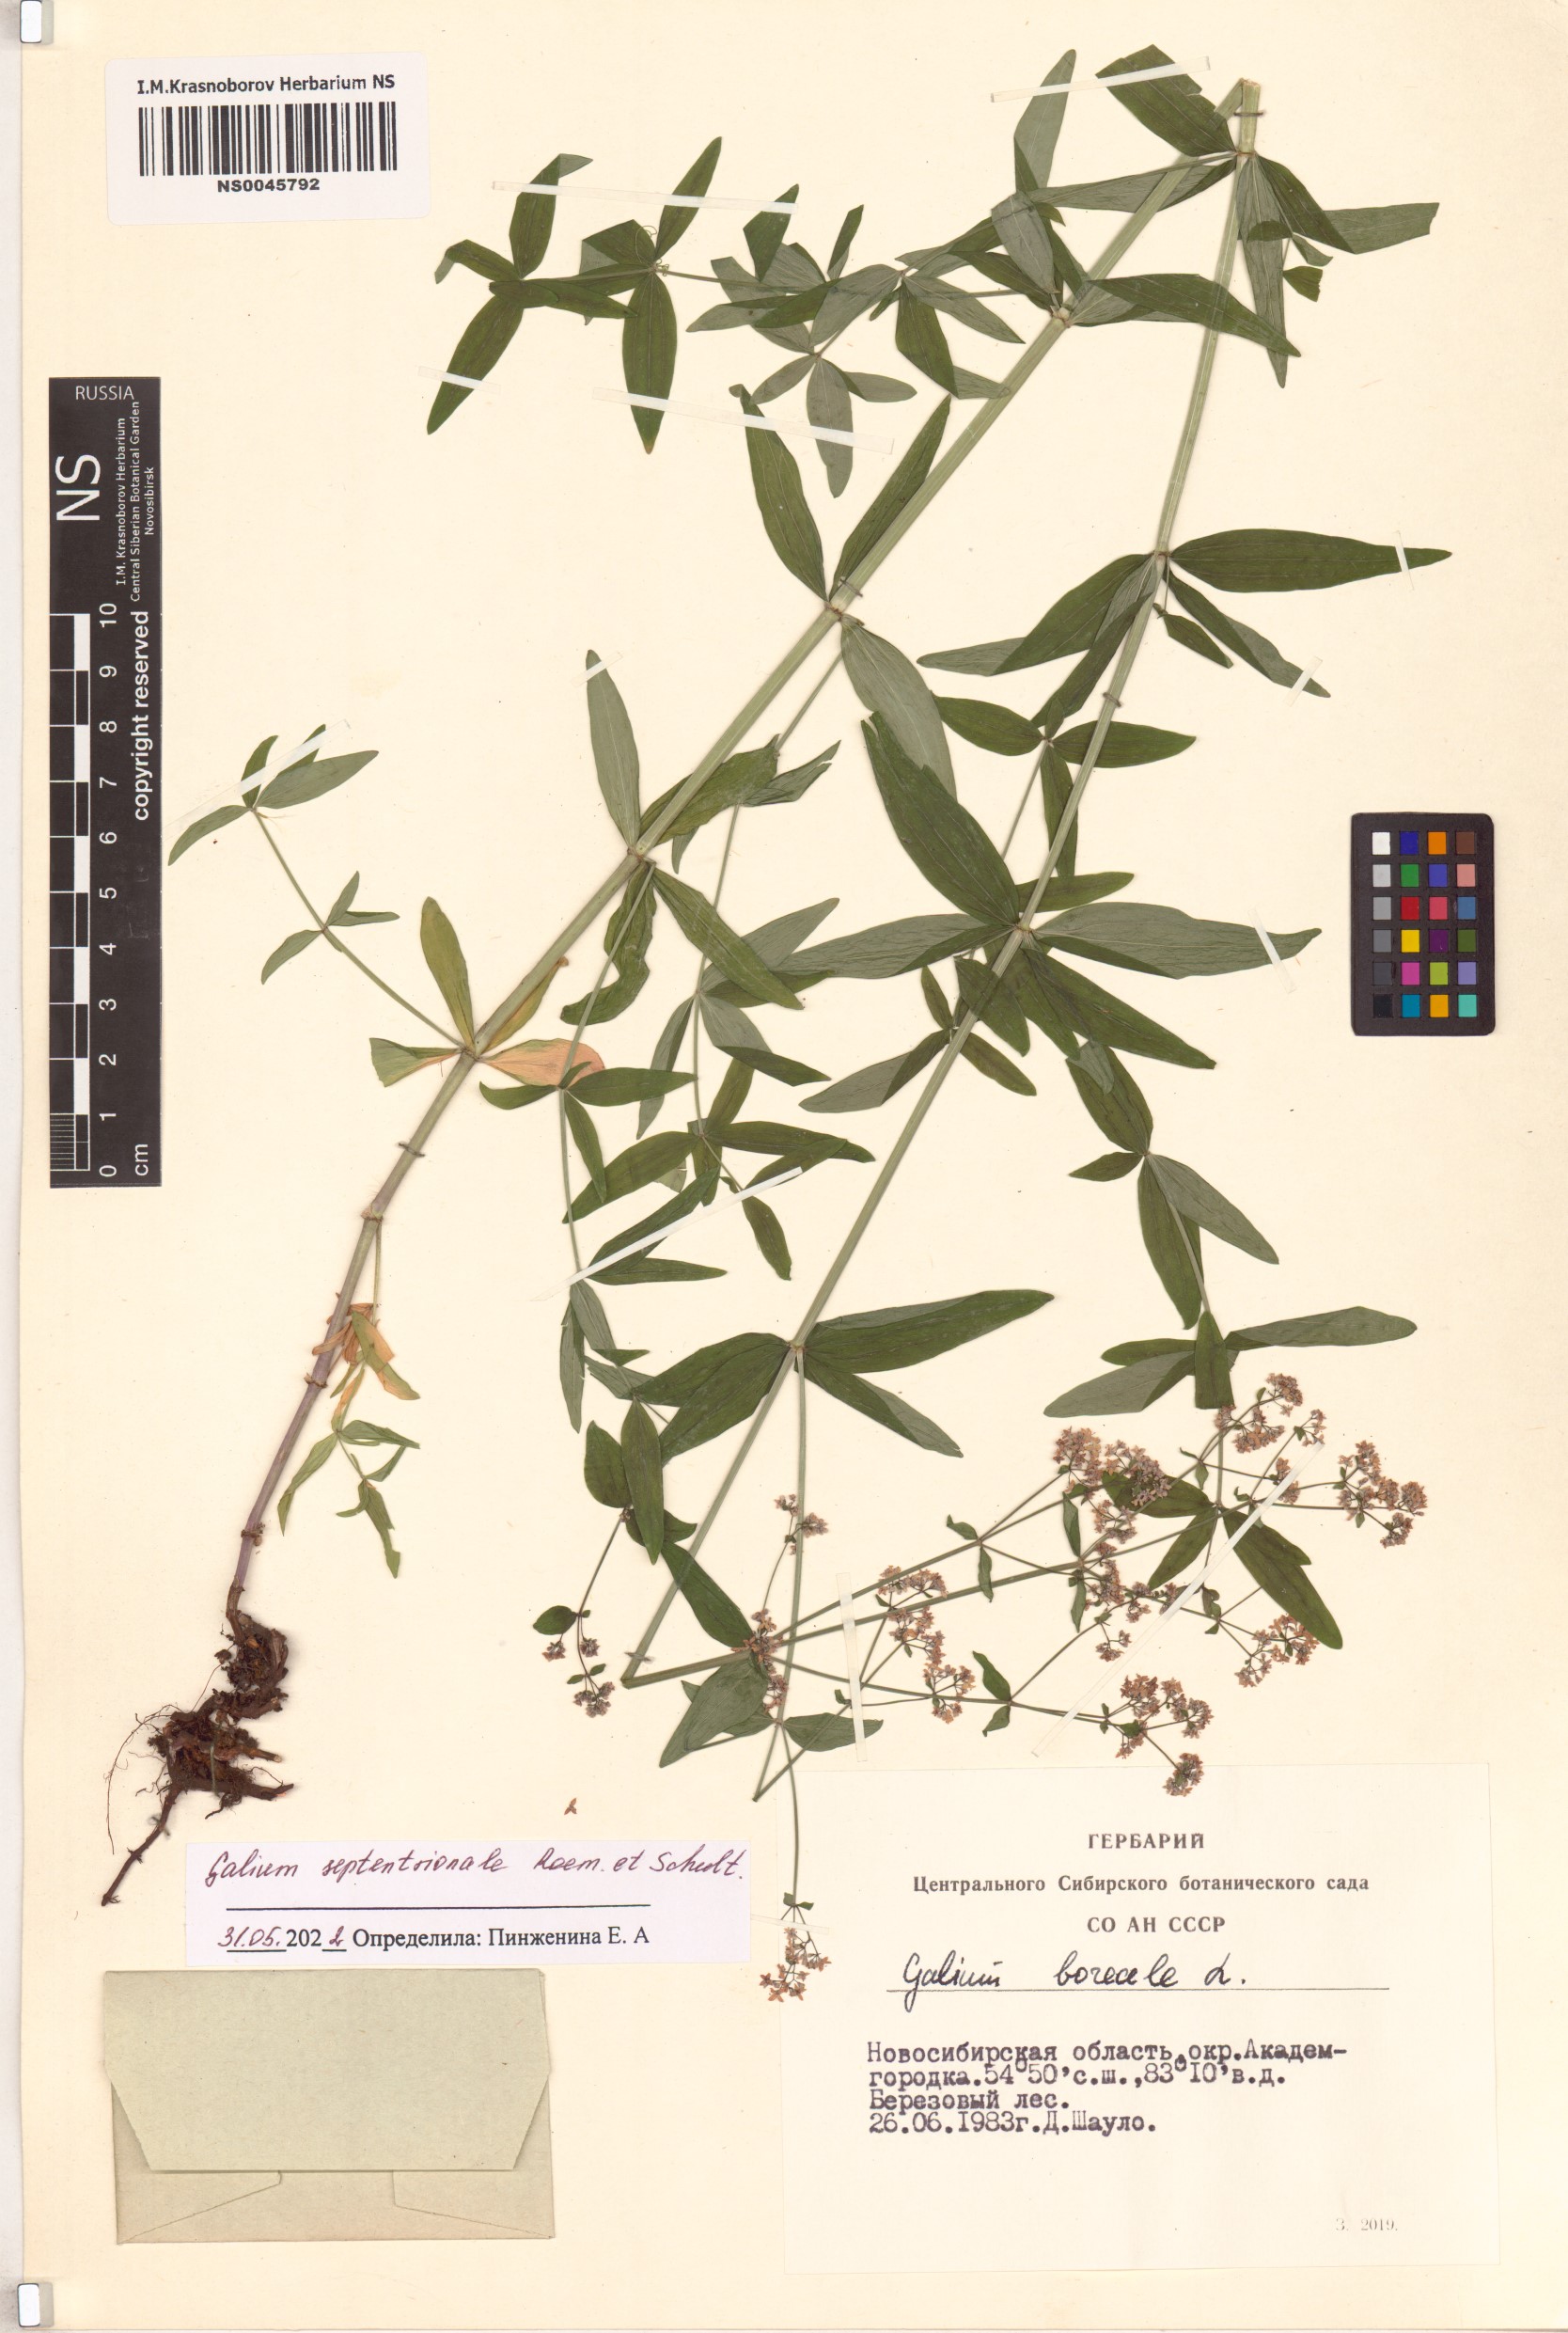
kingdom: Plantae
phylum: Tracheophyta
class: Magnoliopsida
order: Gentianales
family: Rubiaceae
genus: Galium
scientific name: Galium boreale
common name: Northern bedstraw
